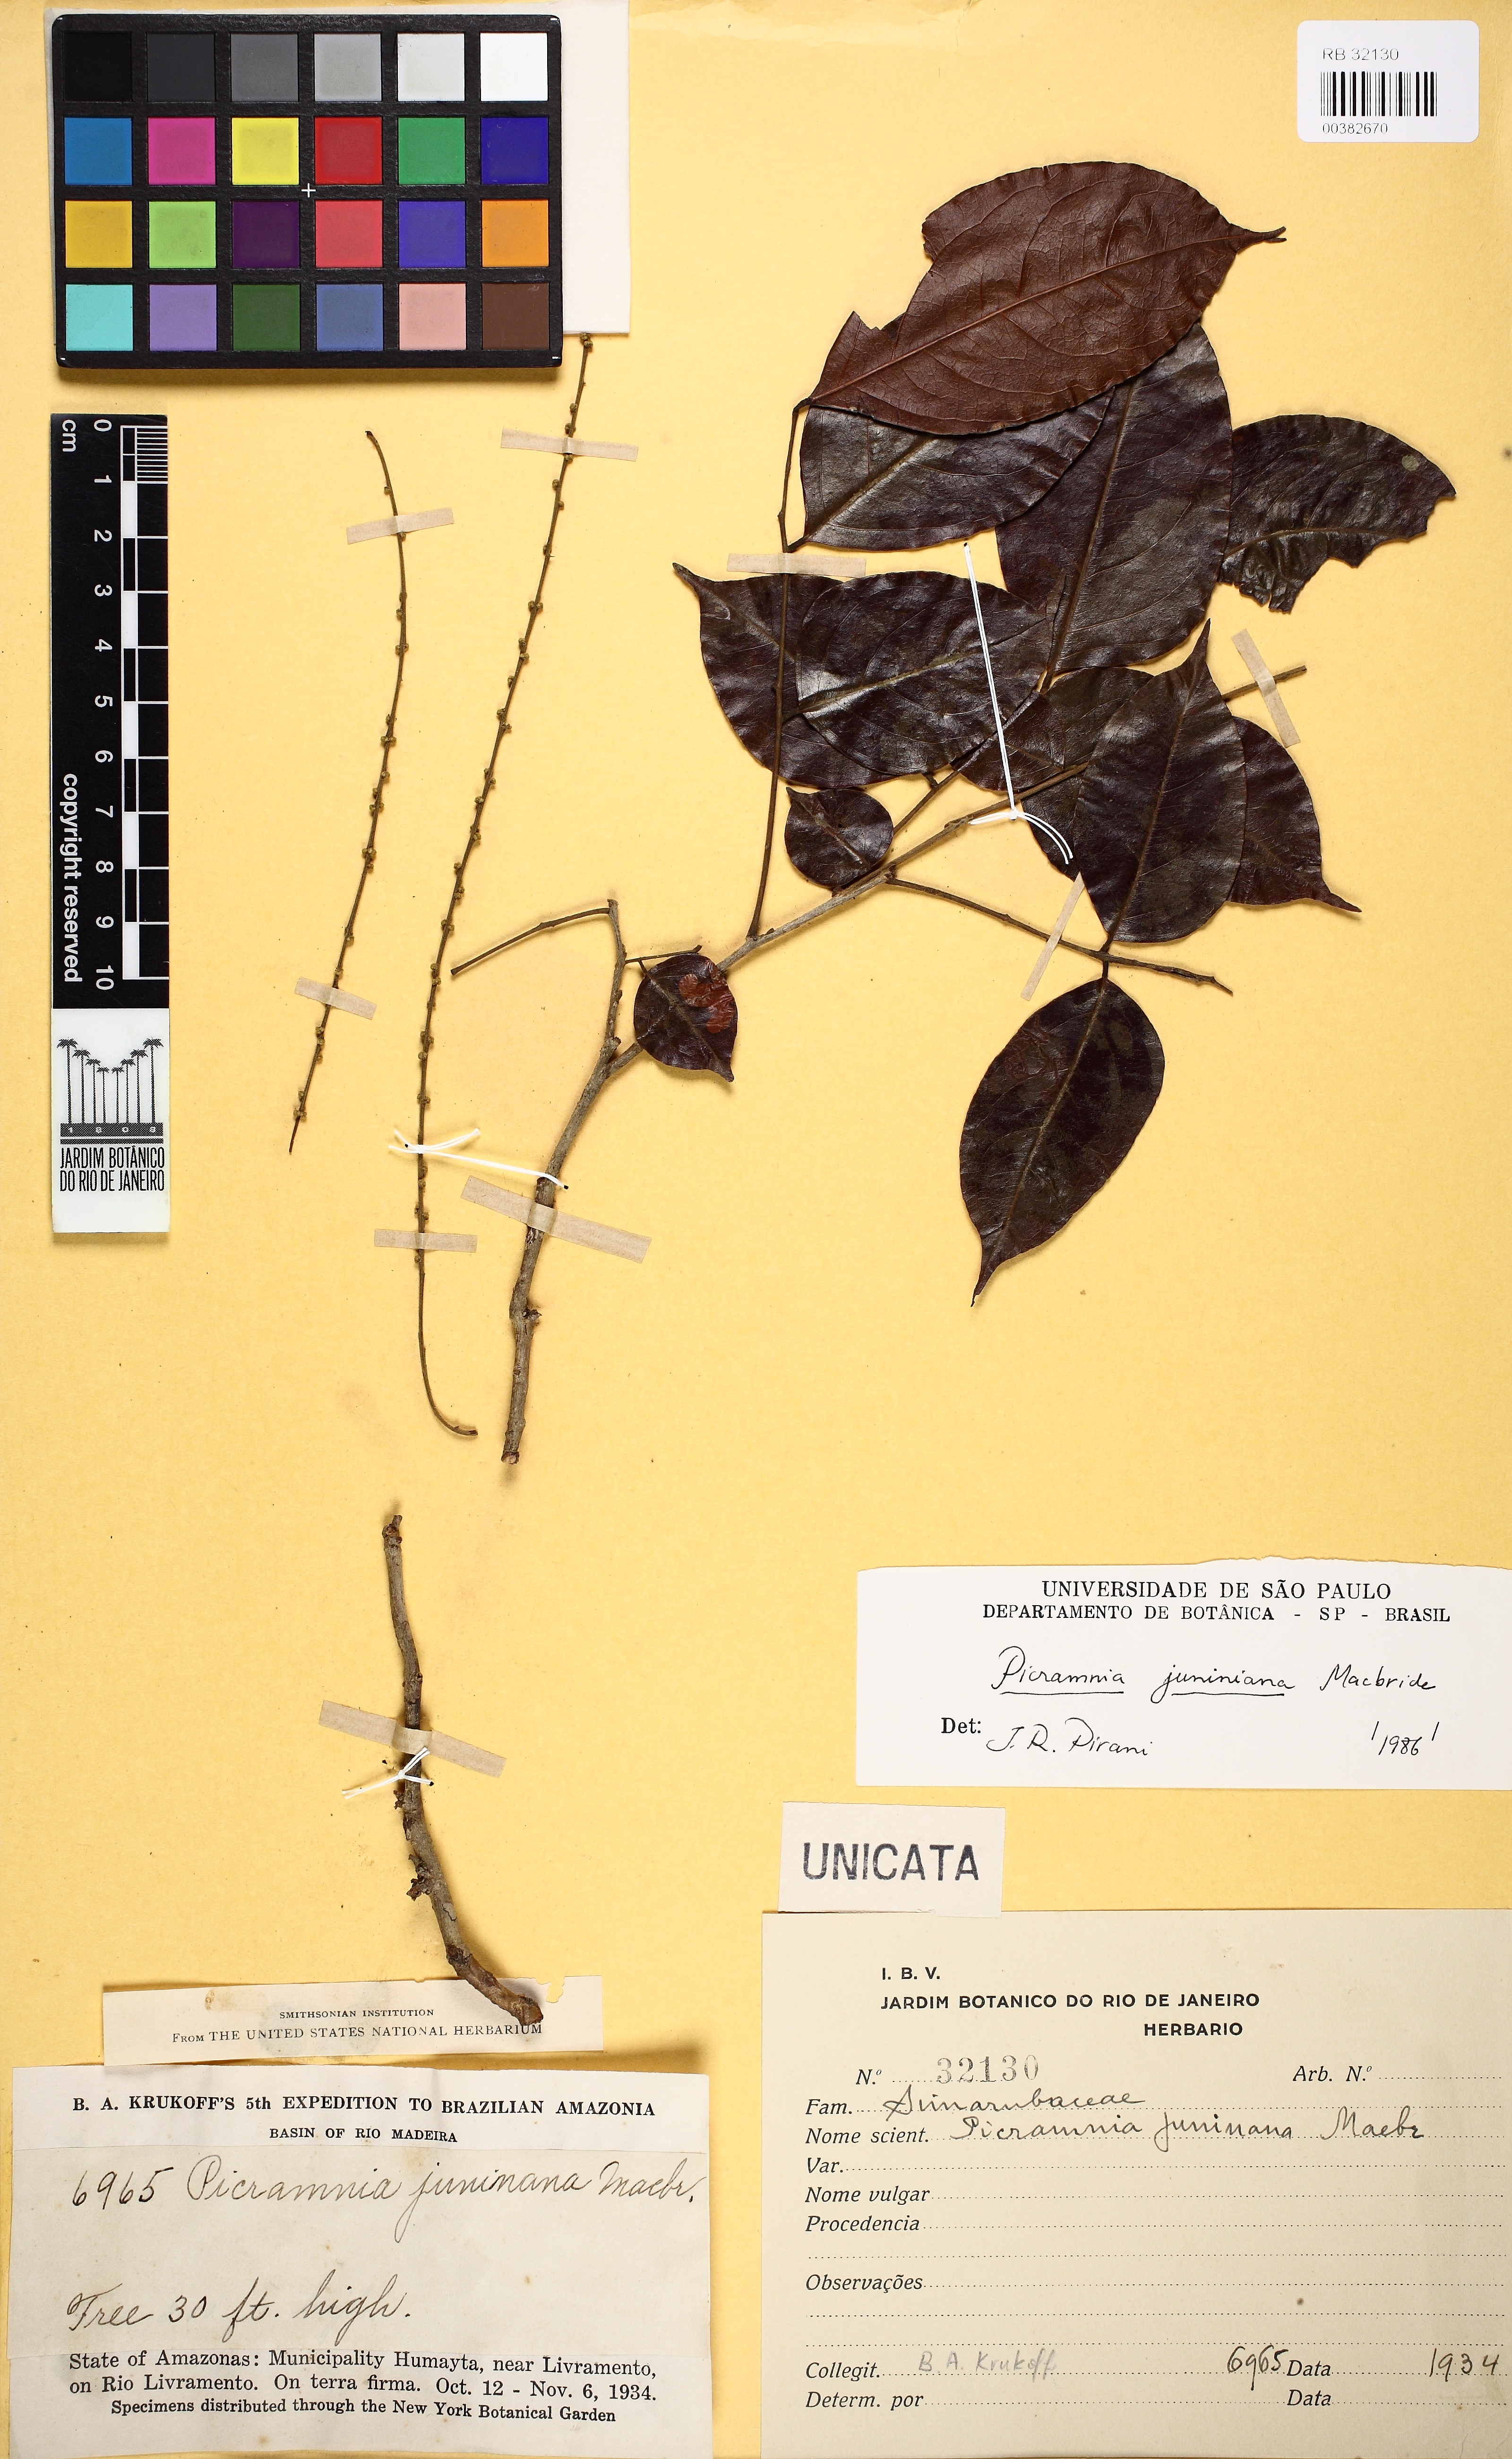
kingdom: Plantae
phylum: Tracheophyta
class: Magnoliopsida
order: Picramniales
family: Picramniaceae
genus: Picramnia
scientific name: Picramnia juniniana
